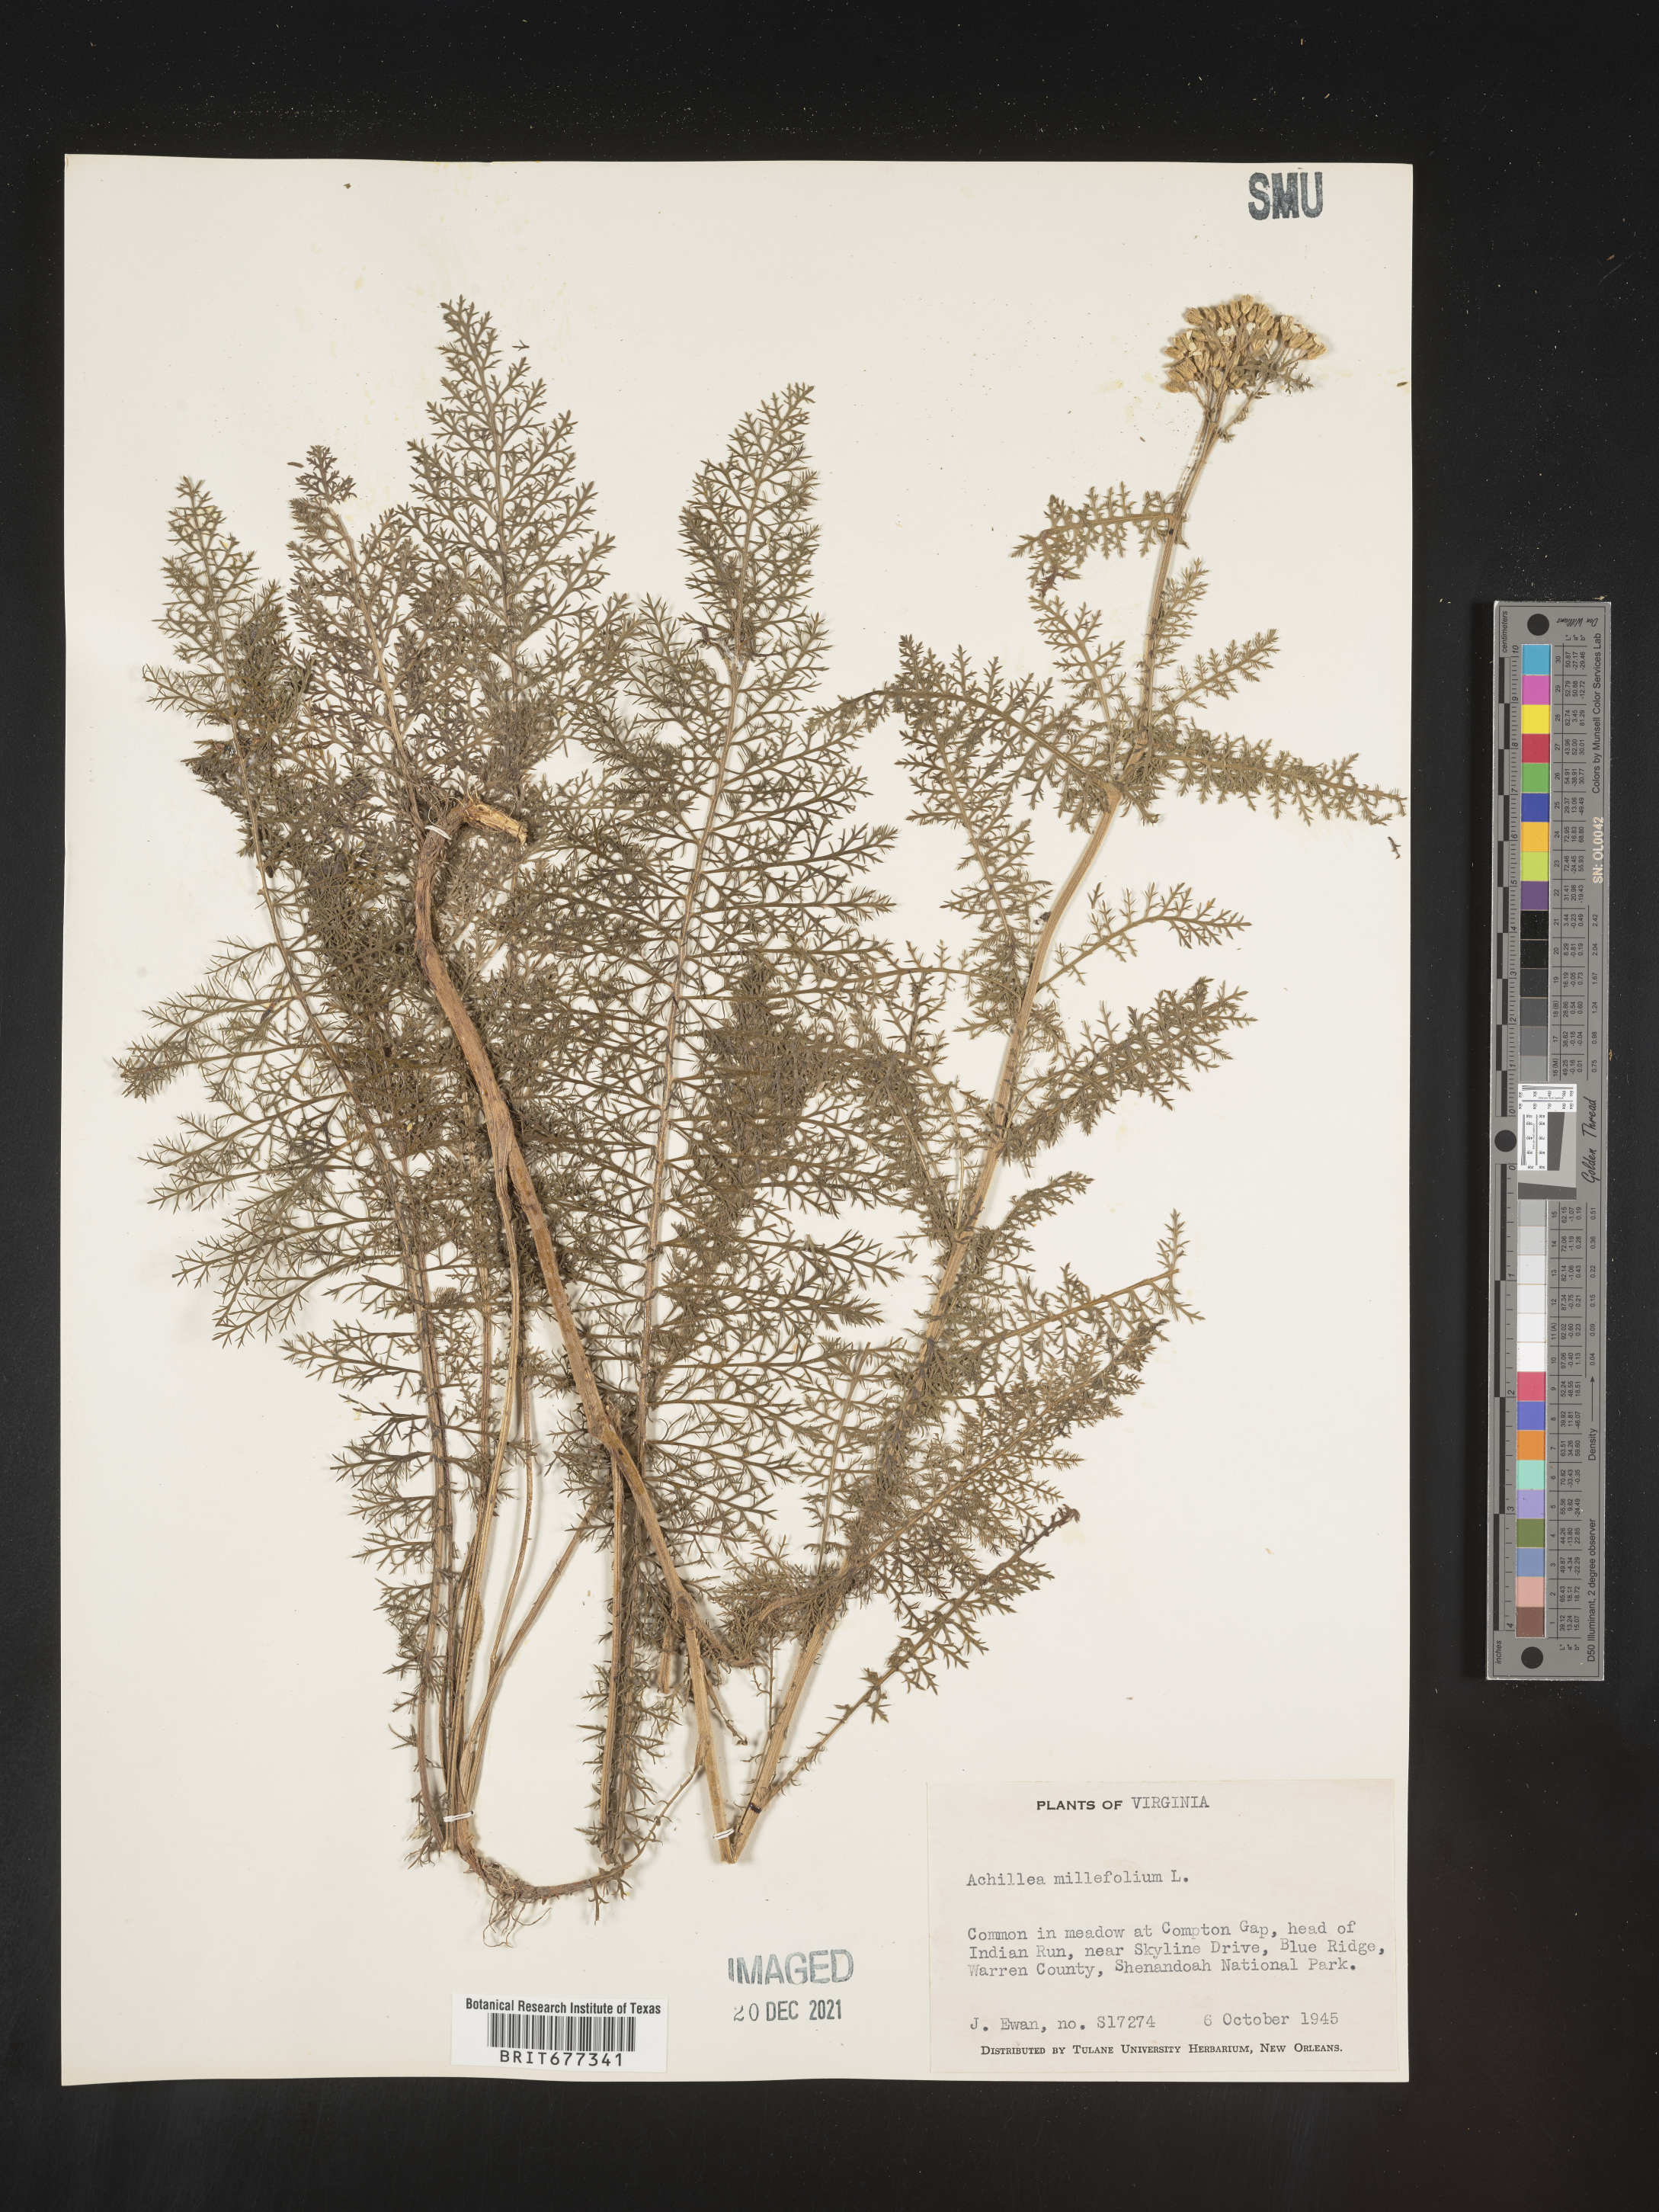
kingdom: Plantae
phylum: Tracheophyta
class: Magnoliopsida
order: Asterales
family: Asteraceae
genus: Achillea
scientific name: Achillea millefolium
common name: Yarrow
